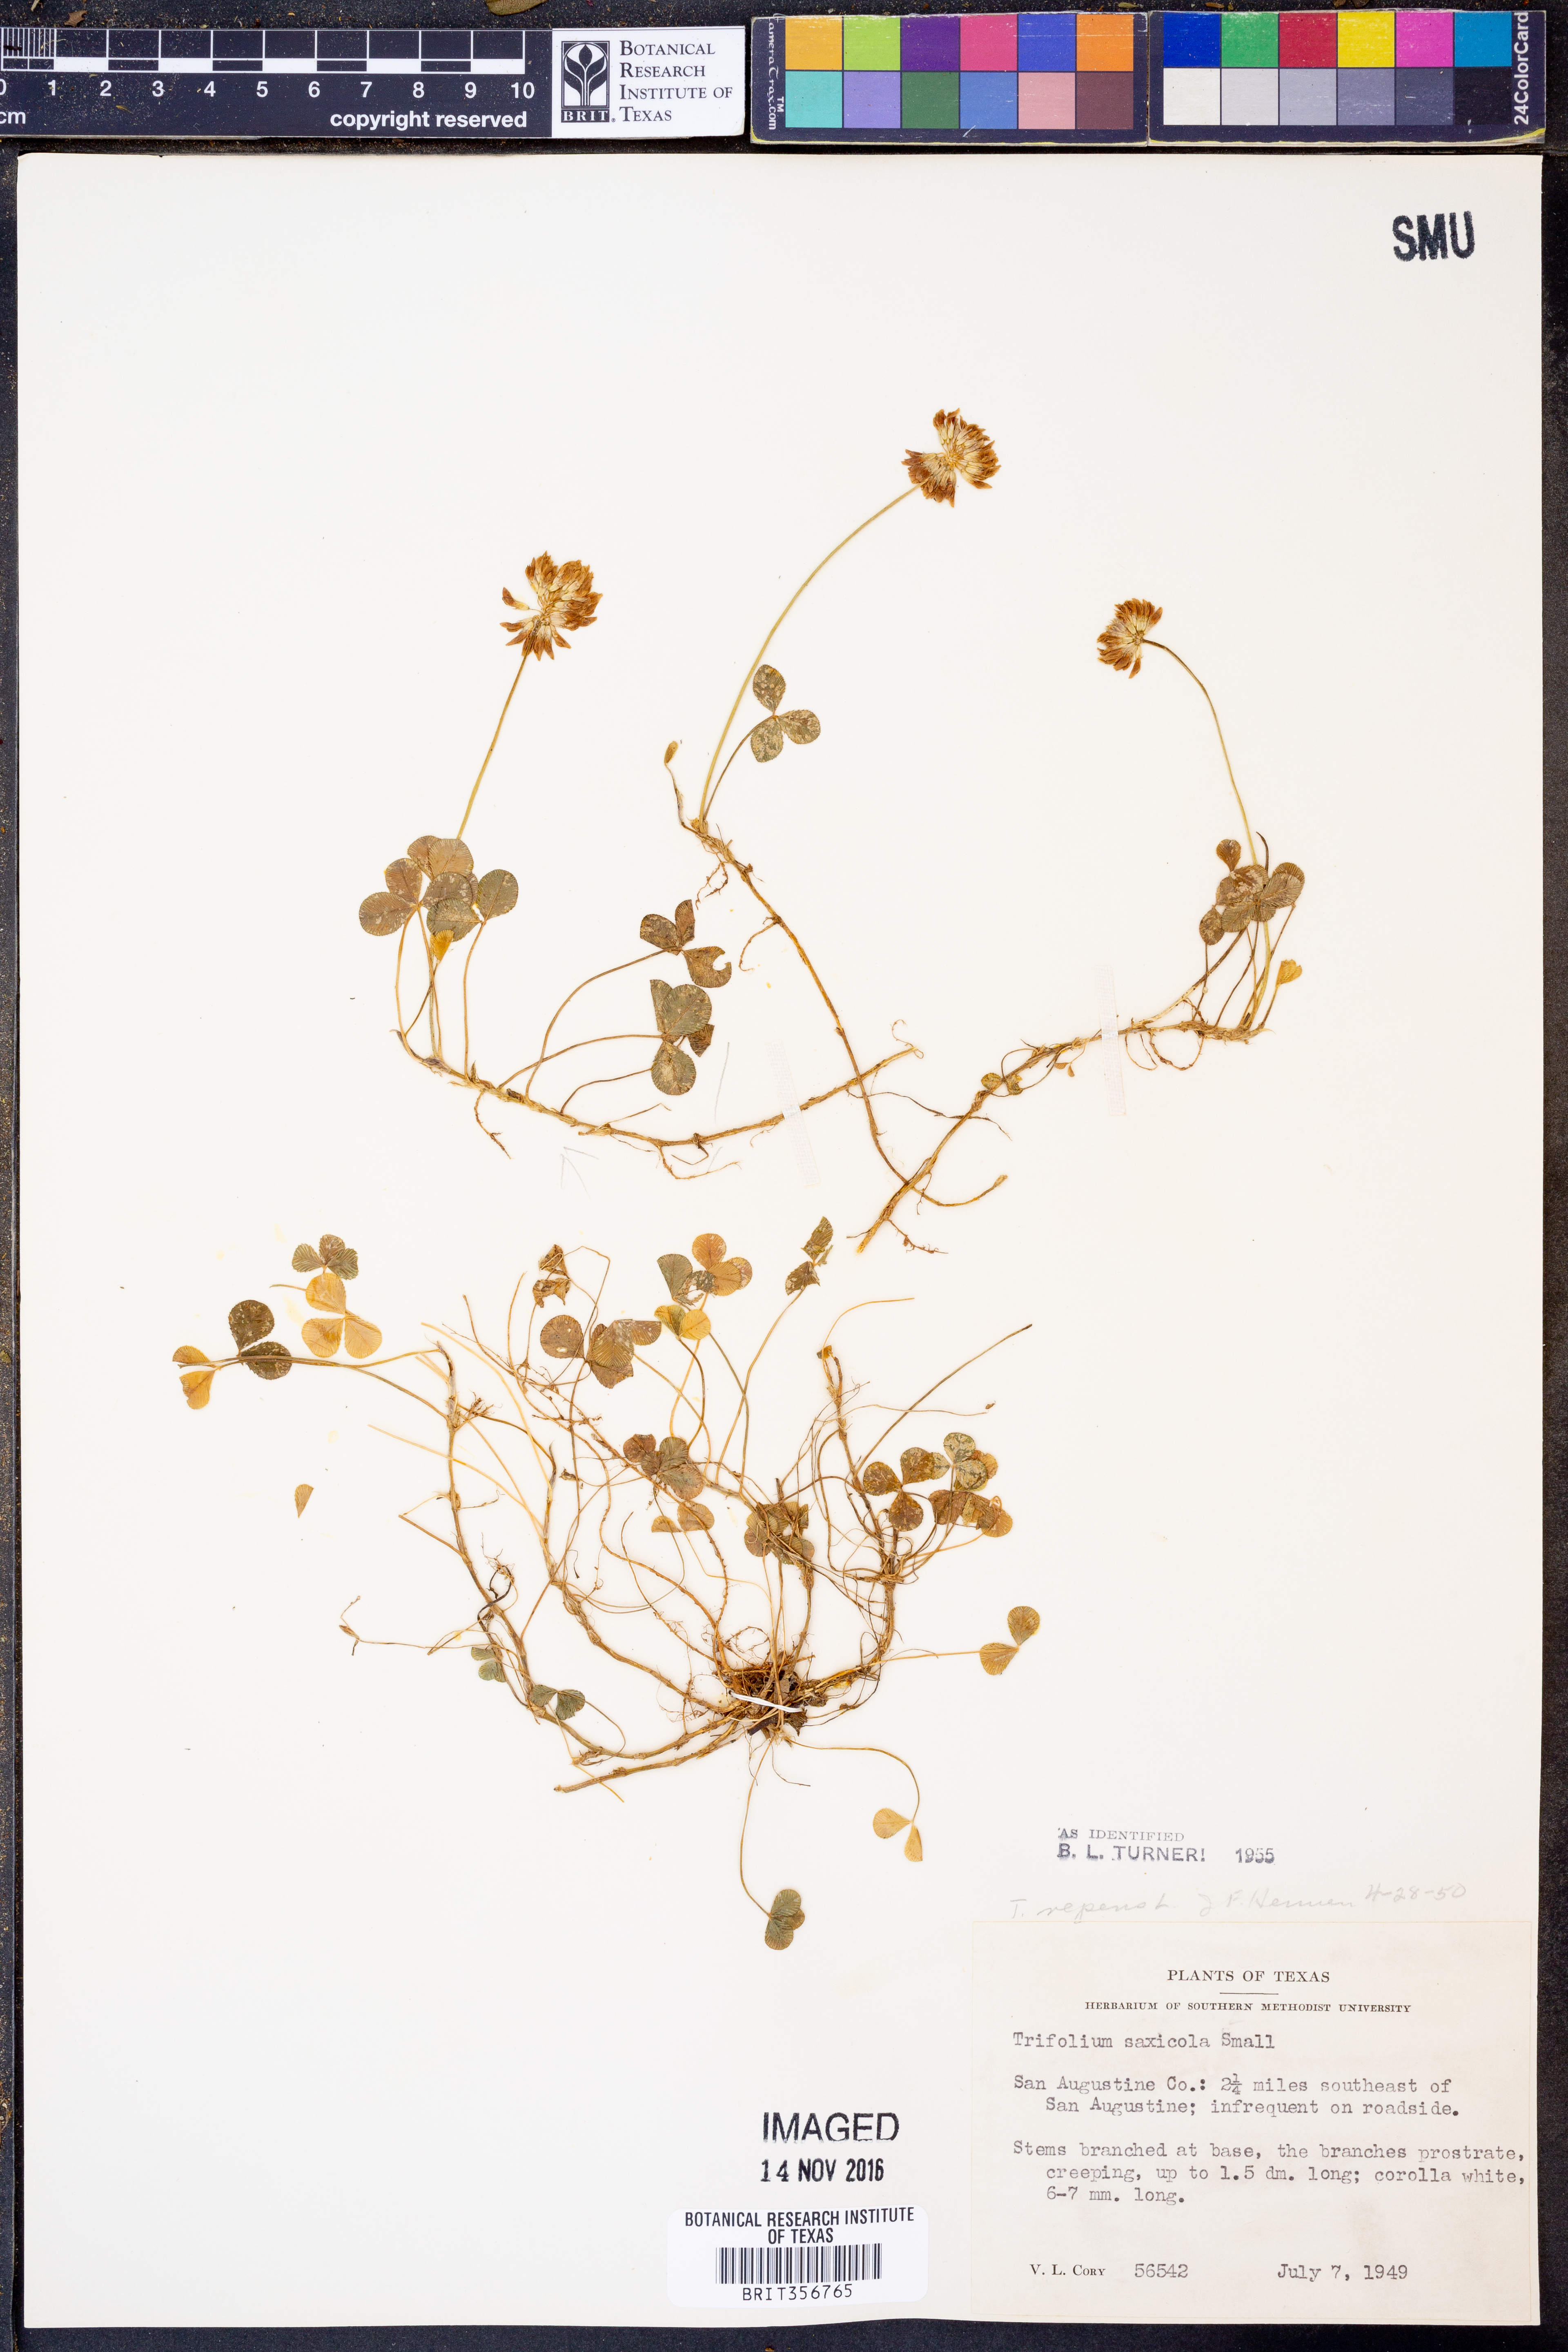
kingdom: Plantae
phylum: Tracheophyta
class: Magnoliopsida
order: Fabales
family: Fabaceae
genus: Trifolium
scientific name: Trifolium repens
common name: White clover
